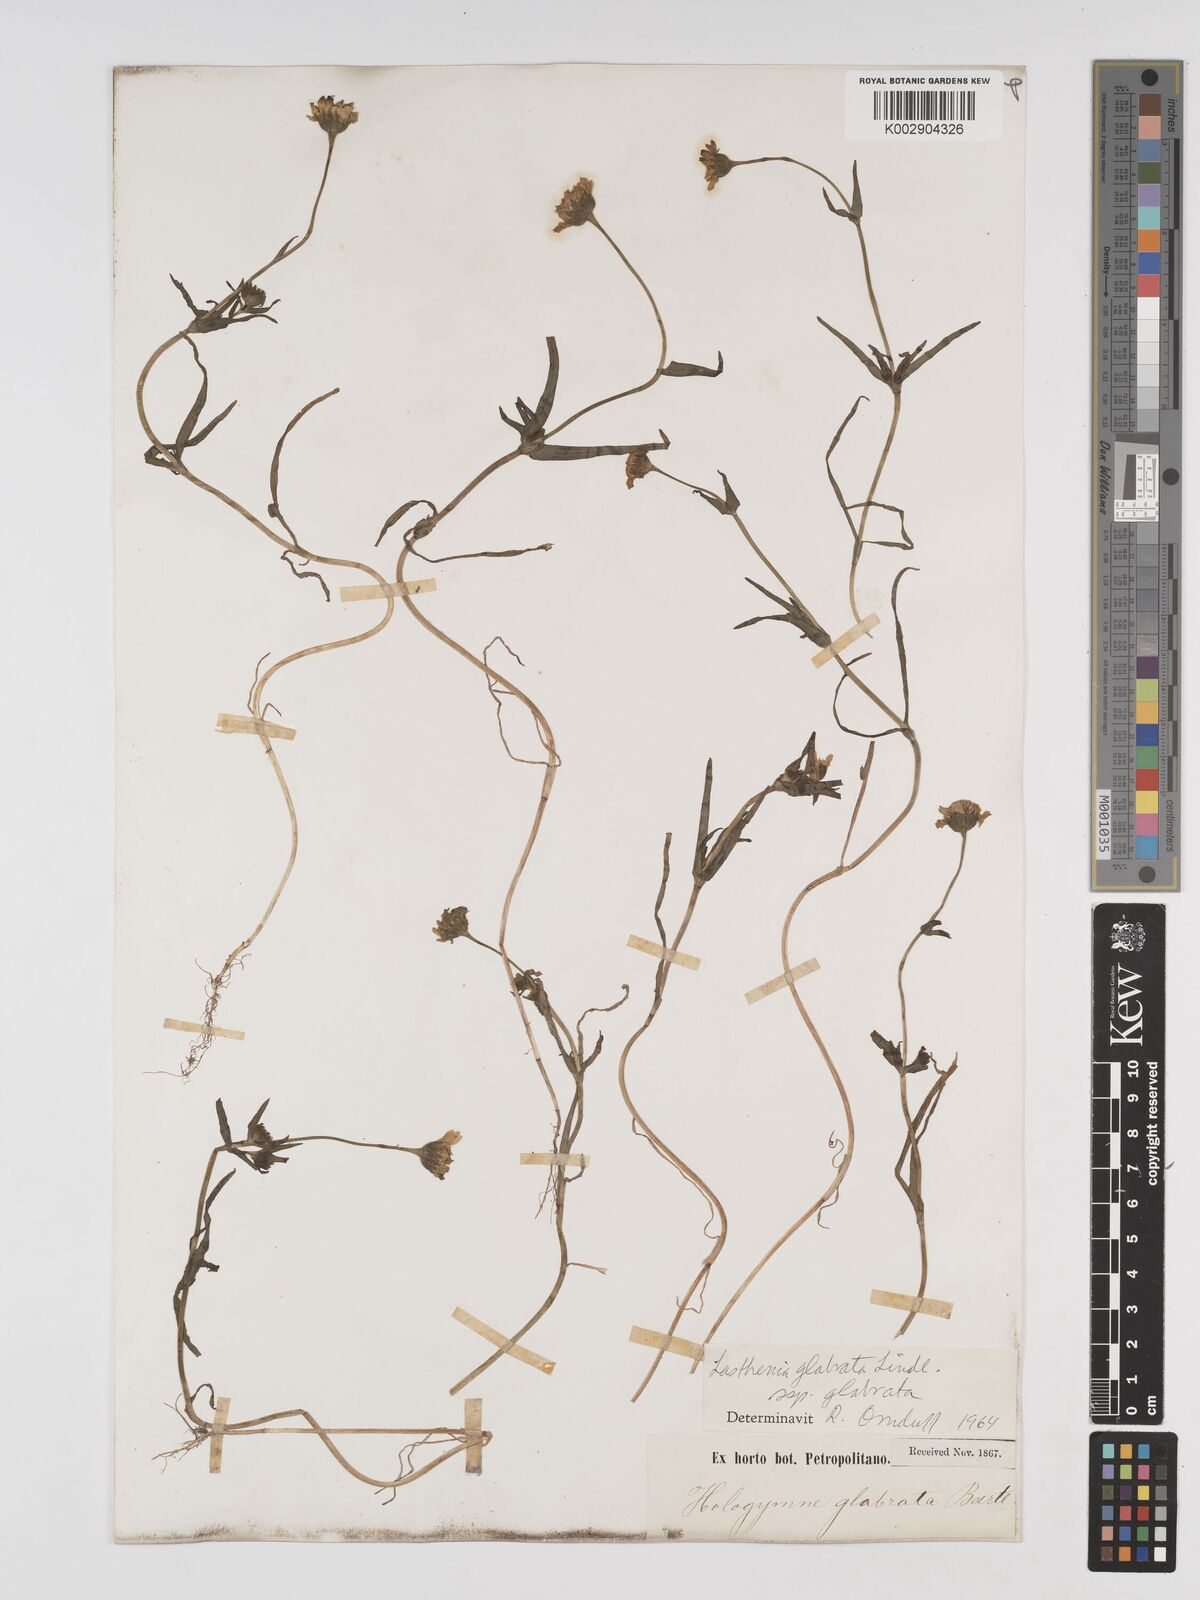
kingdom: Plantae
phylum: Tracheophyta
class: Magnoliopsida
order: Asterales
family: Asteraceae
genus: Lasthenia
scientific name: Lasthenia glabrata
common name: Yellow-ray lasthenia
